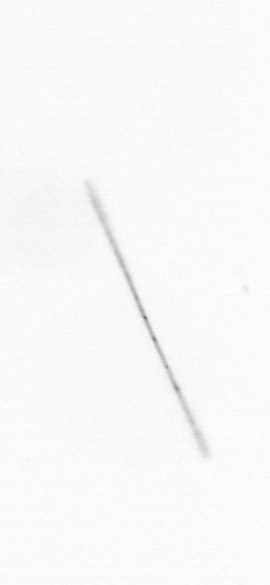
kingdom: Chromista
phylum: Ochrophyta
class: Bacillariophyceae
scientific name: Bacillariophyceae
